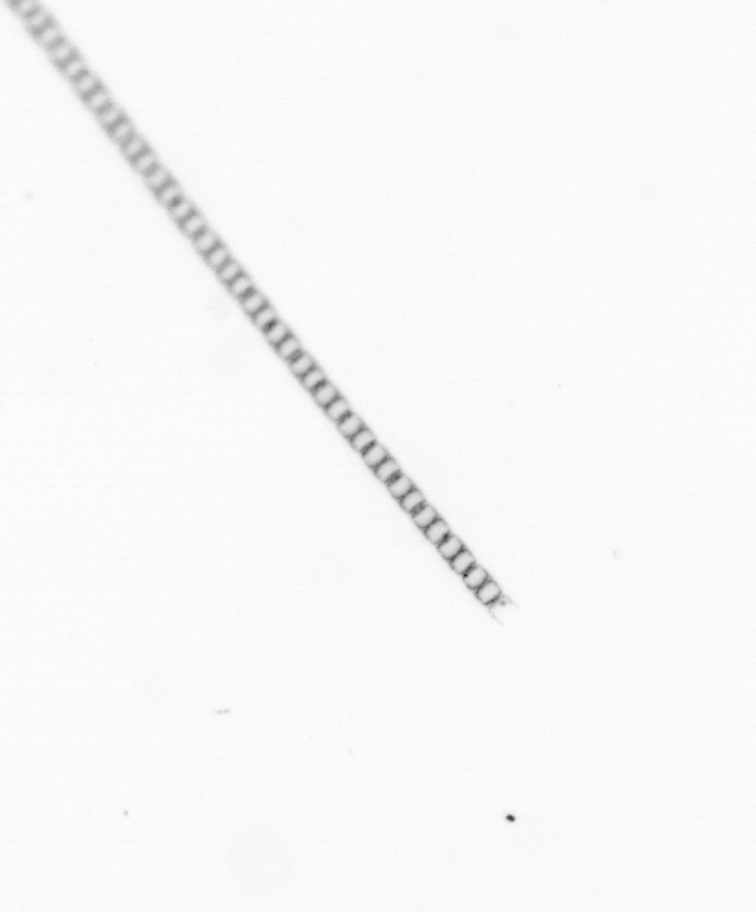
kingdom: Chromista
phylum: Ochrophyta
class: Bacillariophyceae
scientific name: Bacillariophyceae
